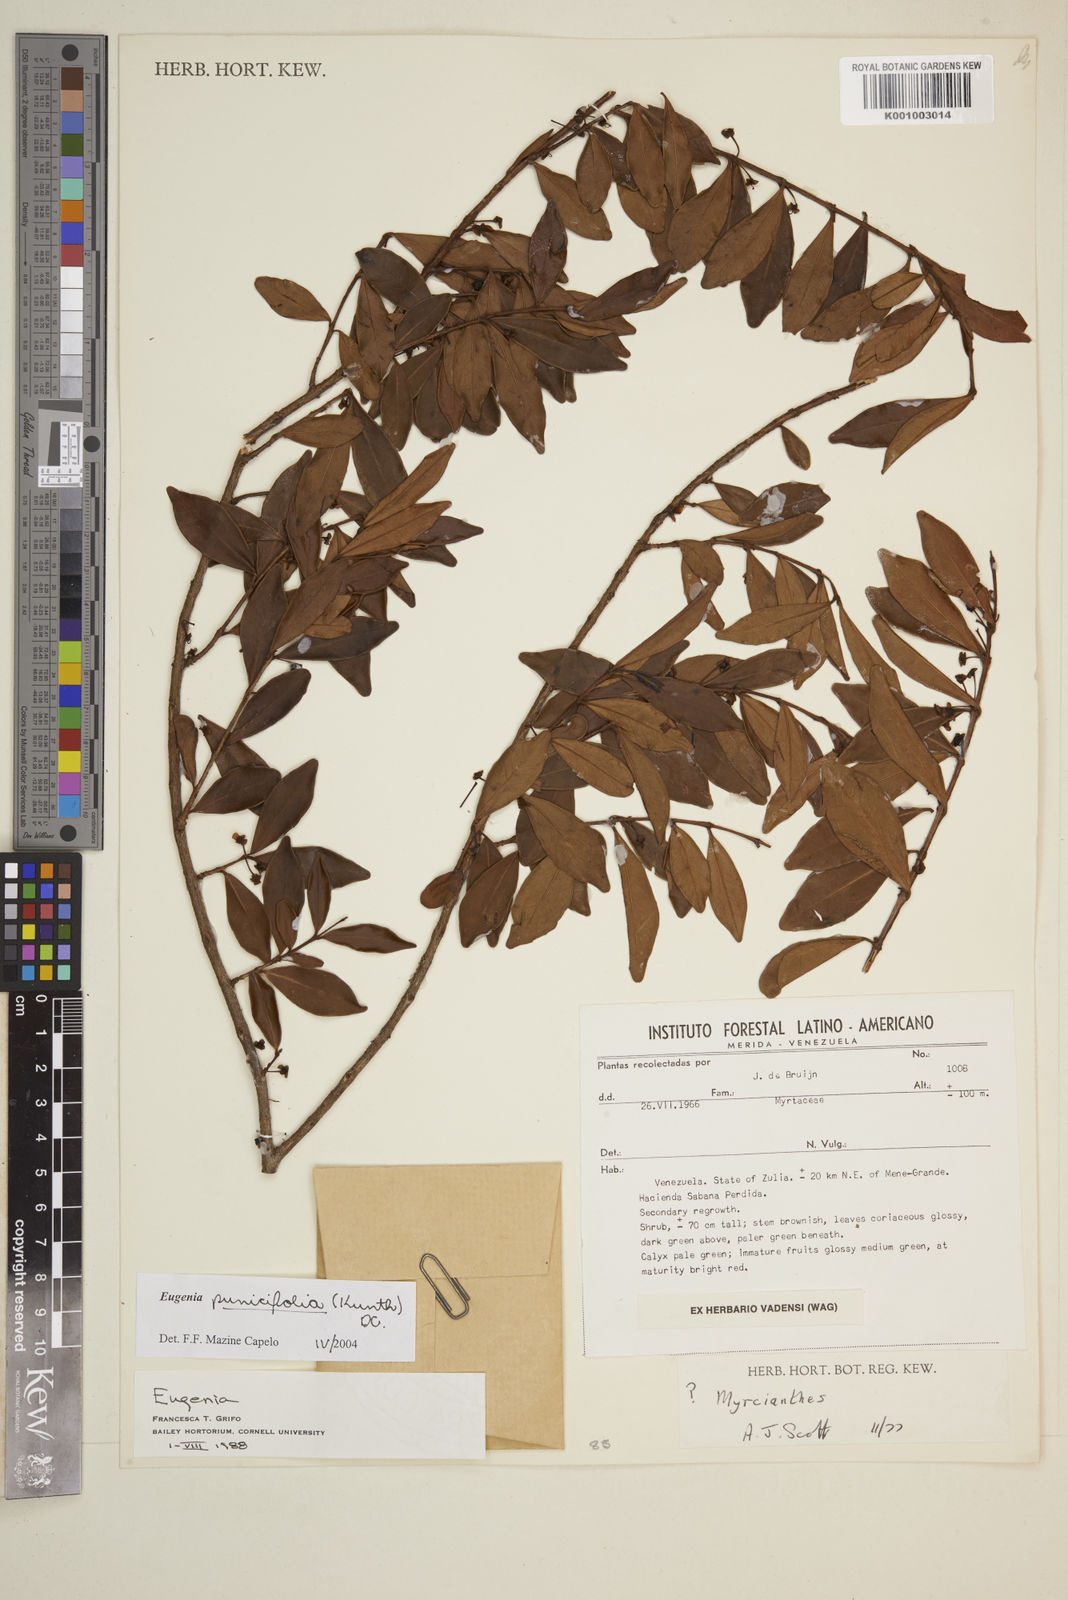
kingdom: Plantae
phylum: Tracheophyta
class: Magnoliopsida
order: Myrtales
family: Myrtaceae
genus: Eugenia
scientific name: Eugenia punicifolia
